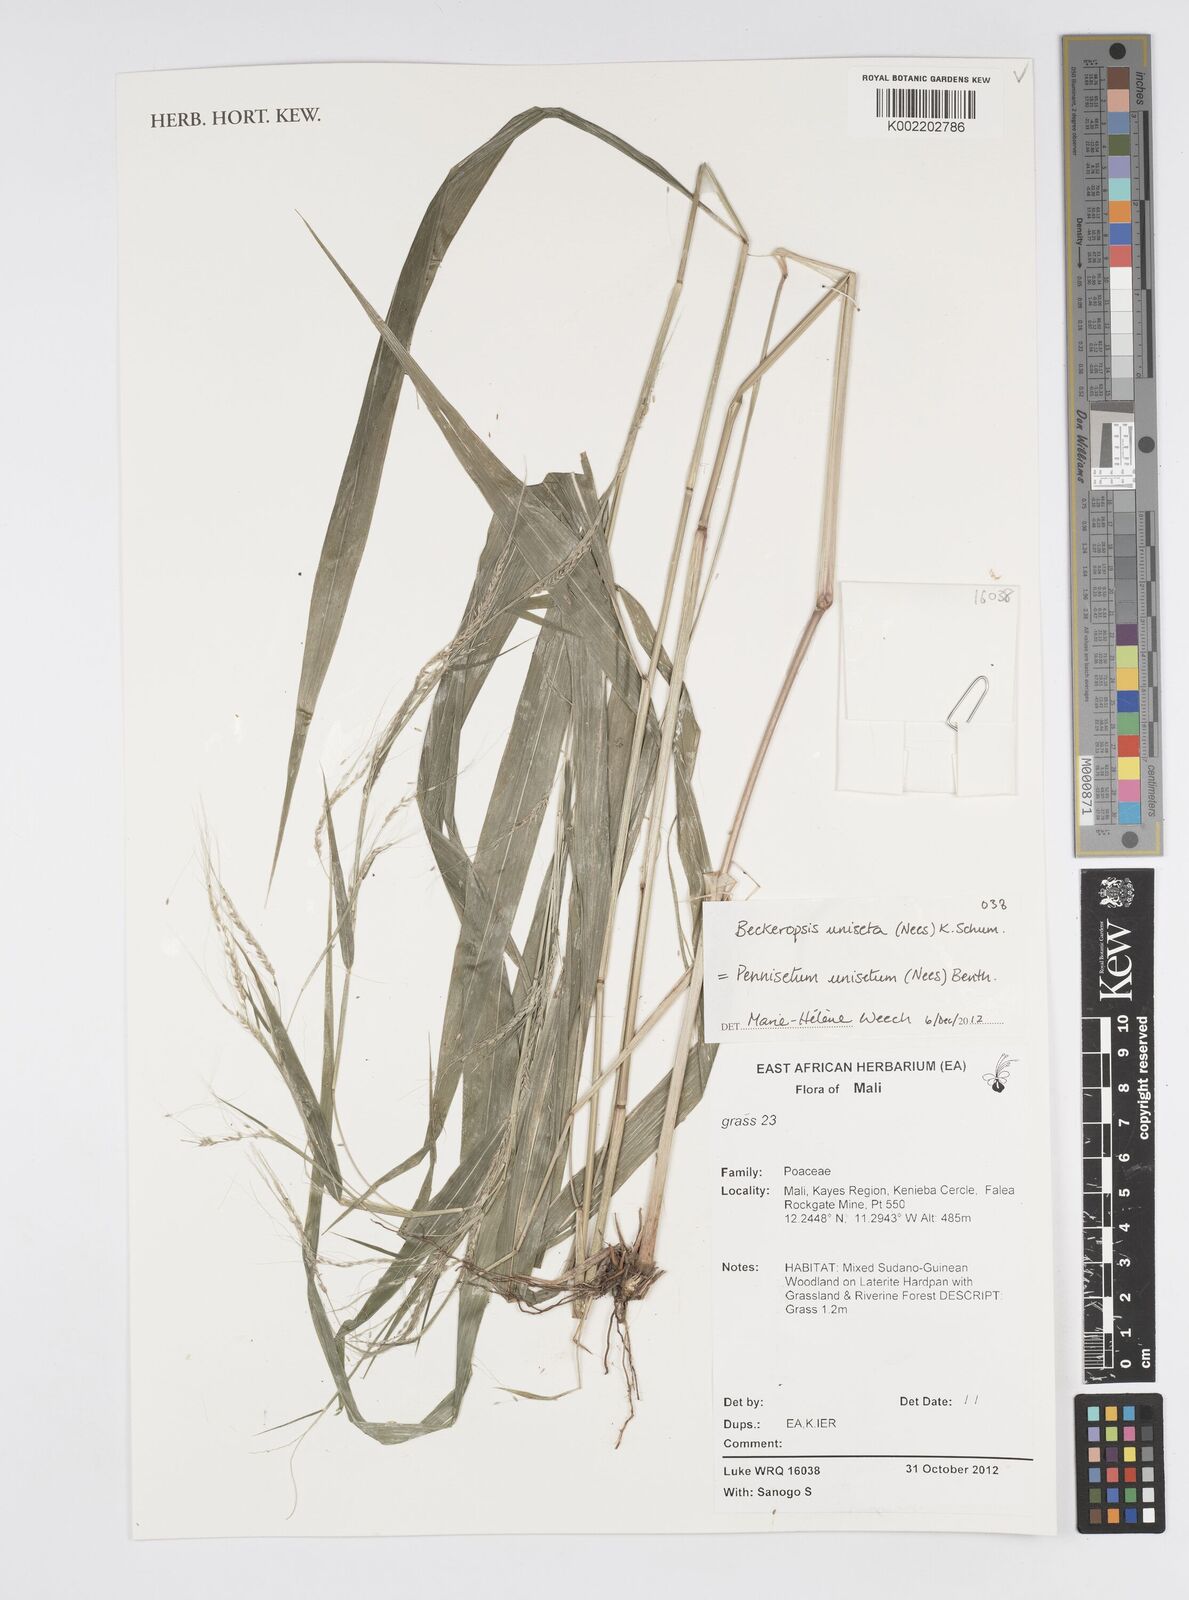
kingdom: Plantae
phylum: Tracheophyta
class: Liliopsida
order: Poales
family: Poaceae
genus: Cenchrus
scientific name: Cenchrus unisetus
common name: Natal grass
